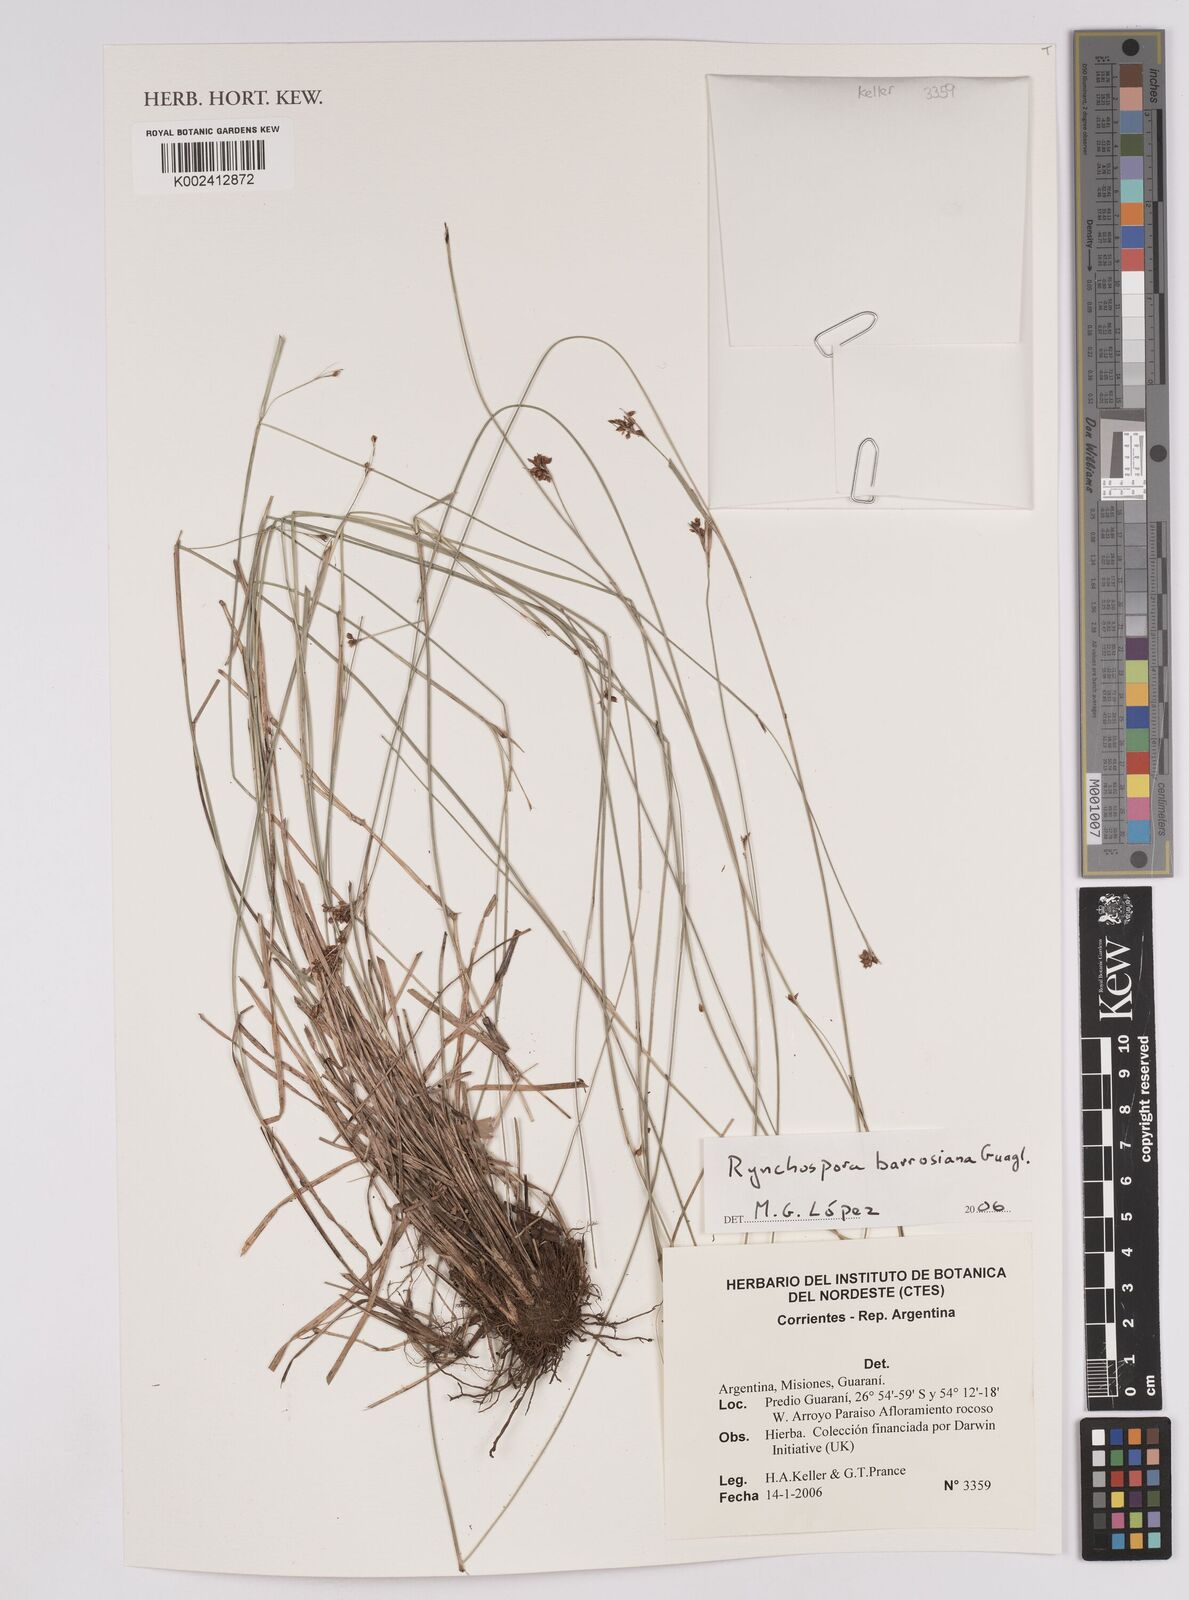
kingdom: Plantae
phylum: Tracheophyta
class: Liliopsida
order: Poales
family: Cyperaceae
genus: Rhynchospora
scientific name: Rhynchospora barrosiana
